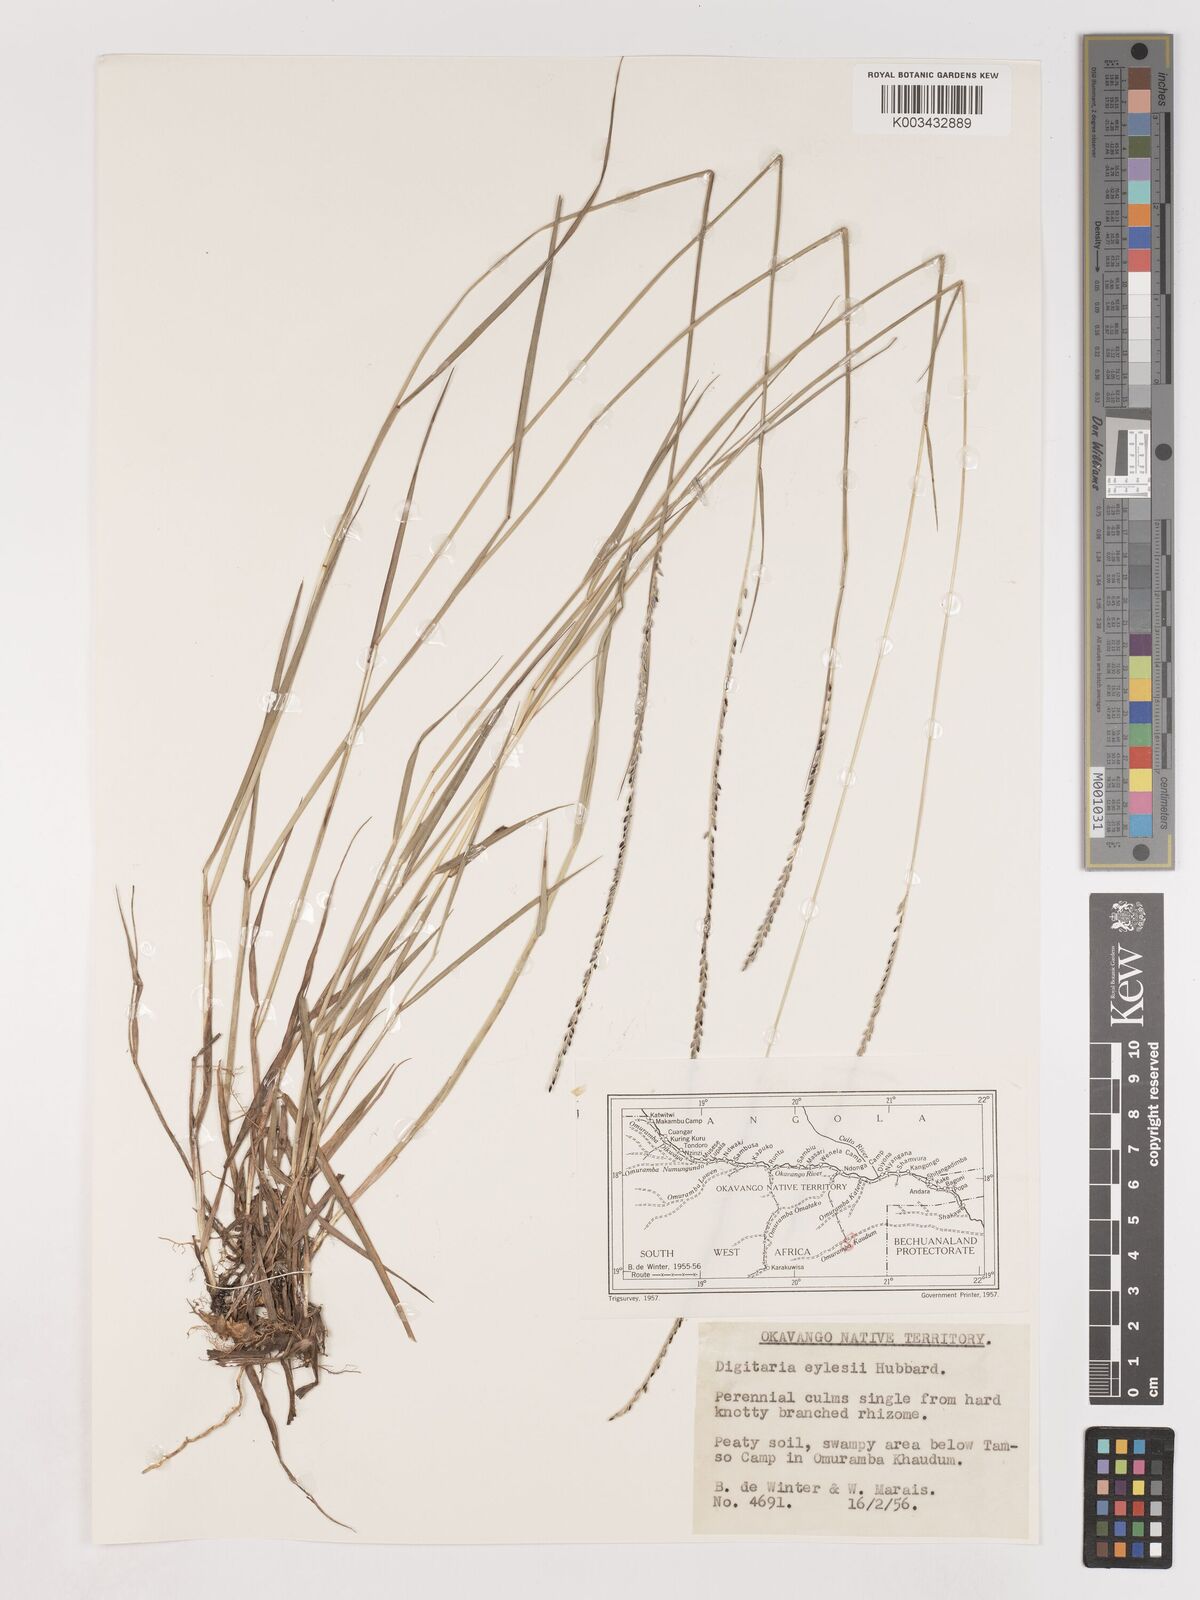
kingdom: Plantae
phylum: Tracheophyta
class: Liliopsida
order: Poales
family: Poaceae
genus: Digitaria
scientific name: Digitaria eylesii
